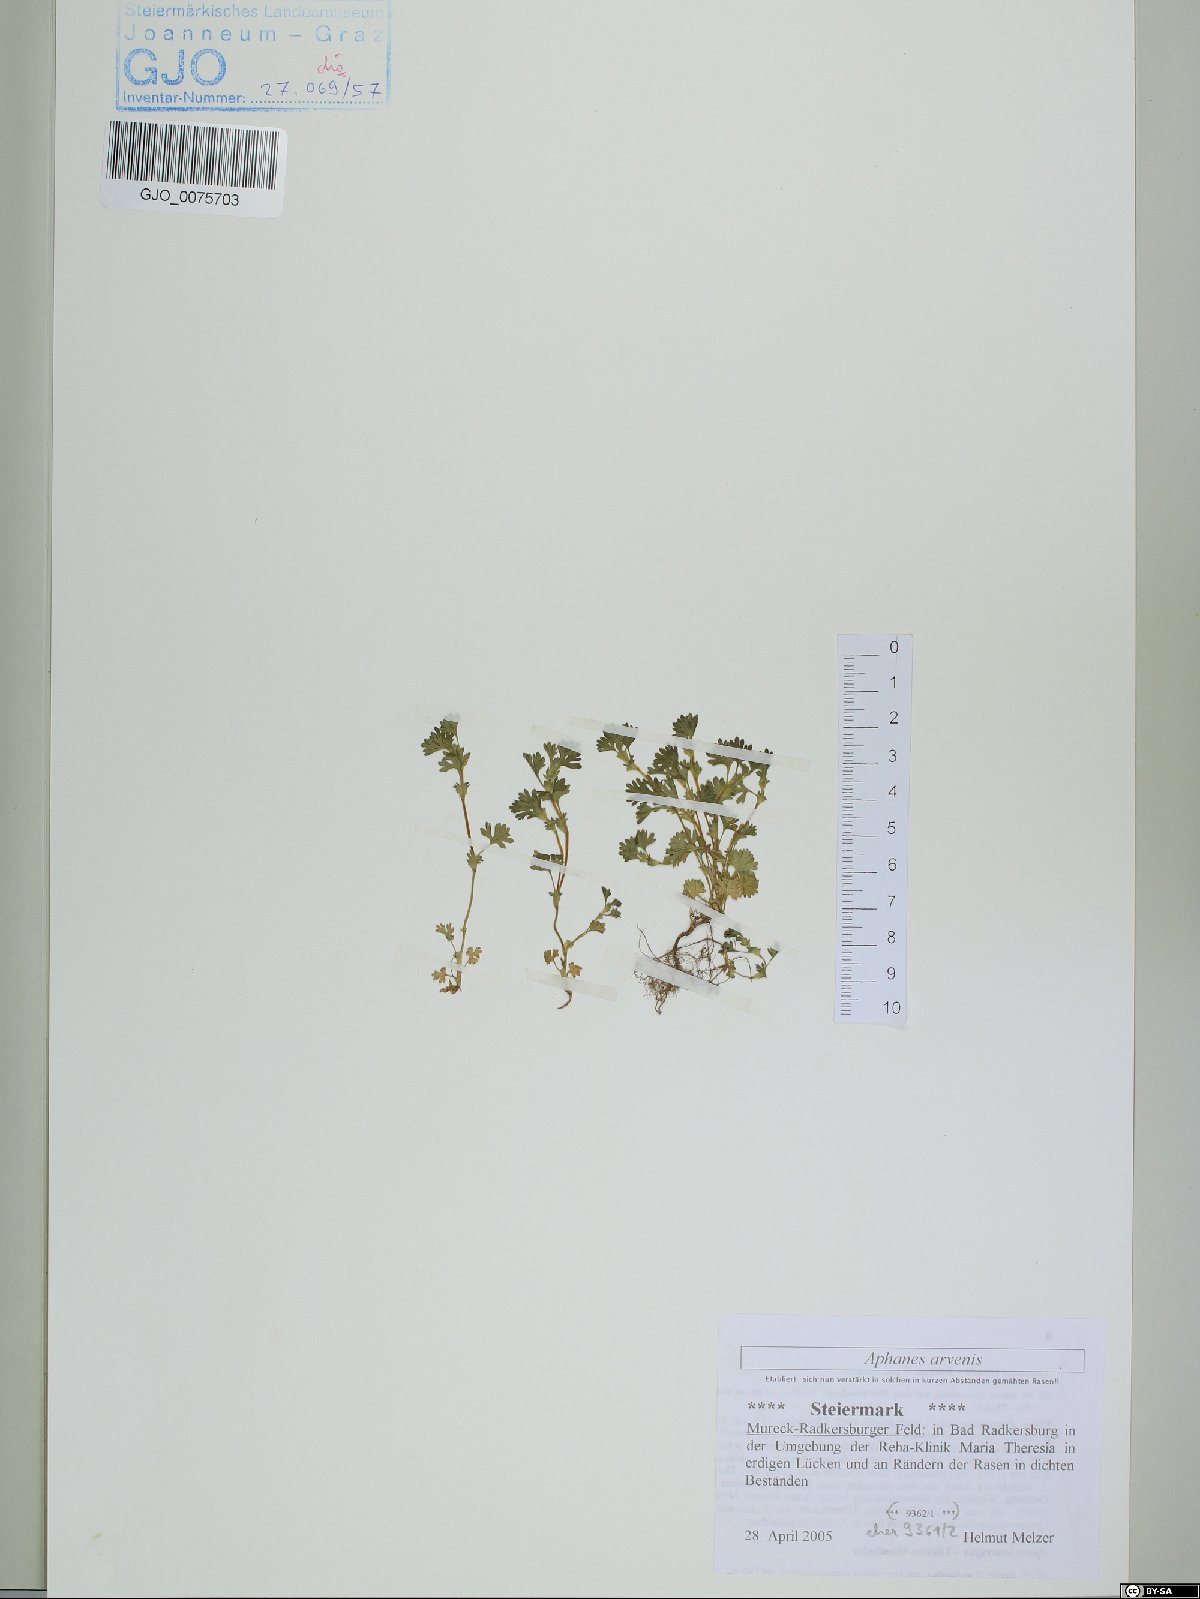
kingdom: Plantae
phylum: Tracheophyta
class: Magnoliopsida
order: Rosales
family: Rosaceae
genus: Aphanes
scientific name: Aphanes arvensis
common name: Parsley-piert
